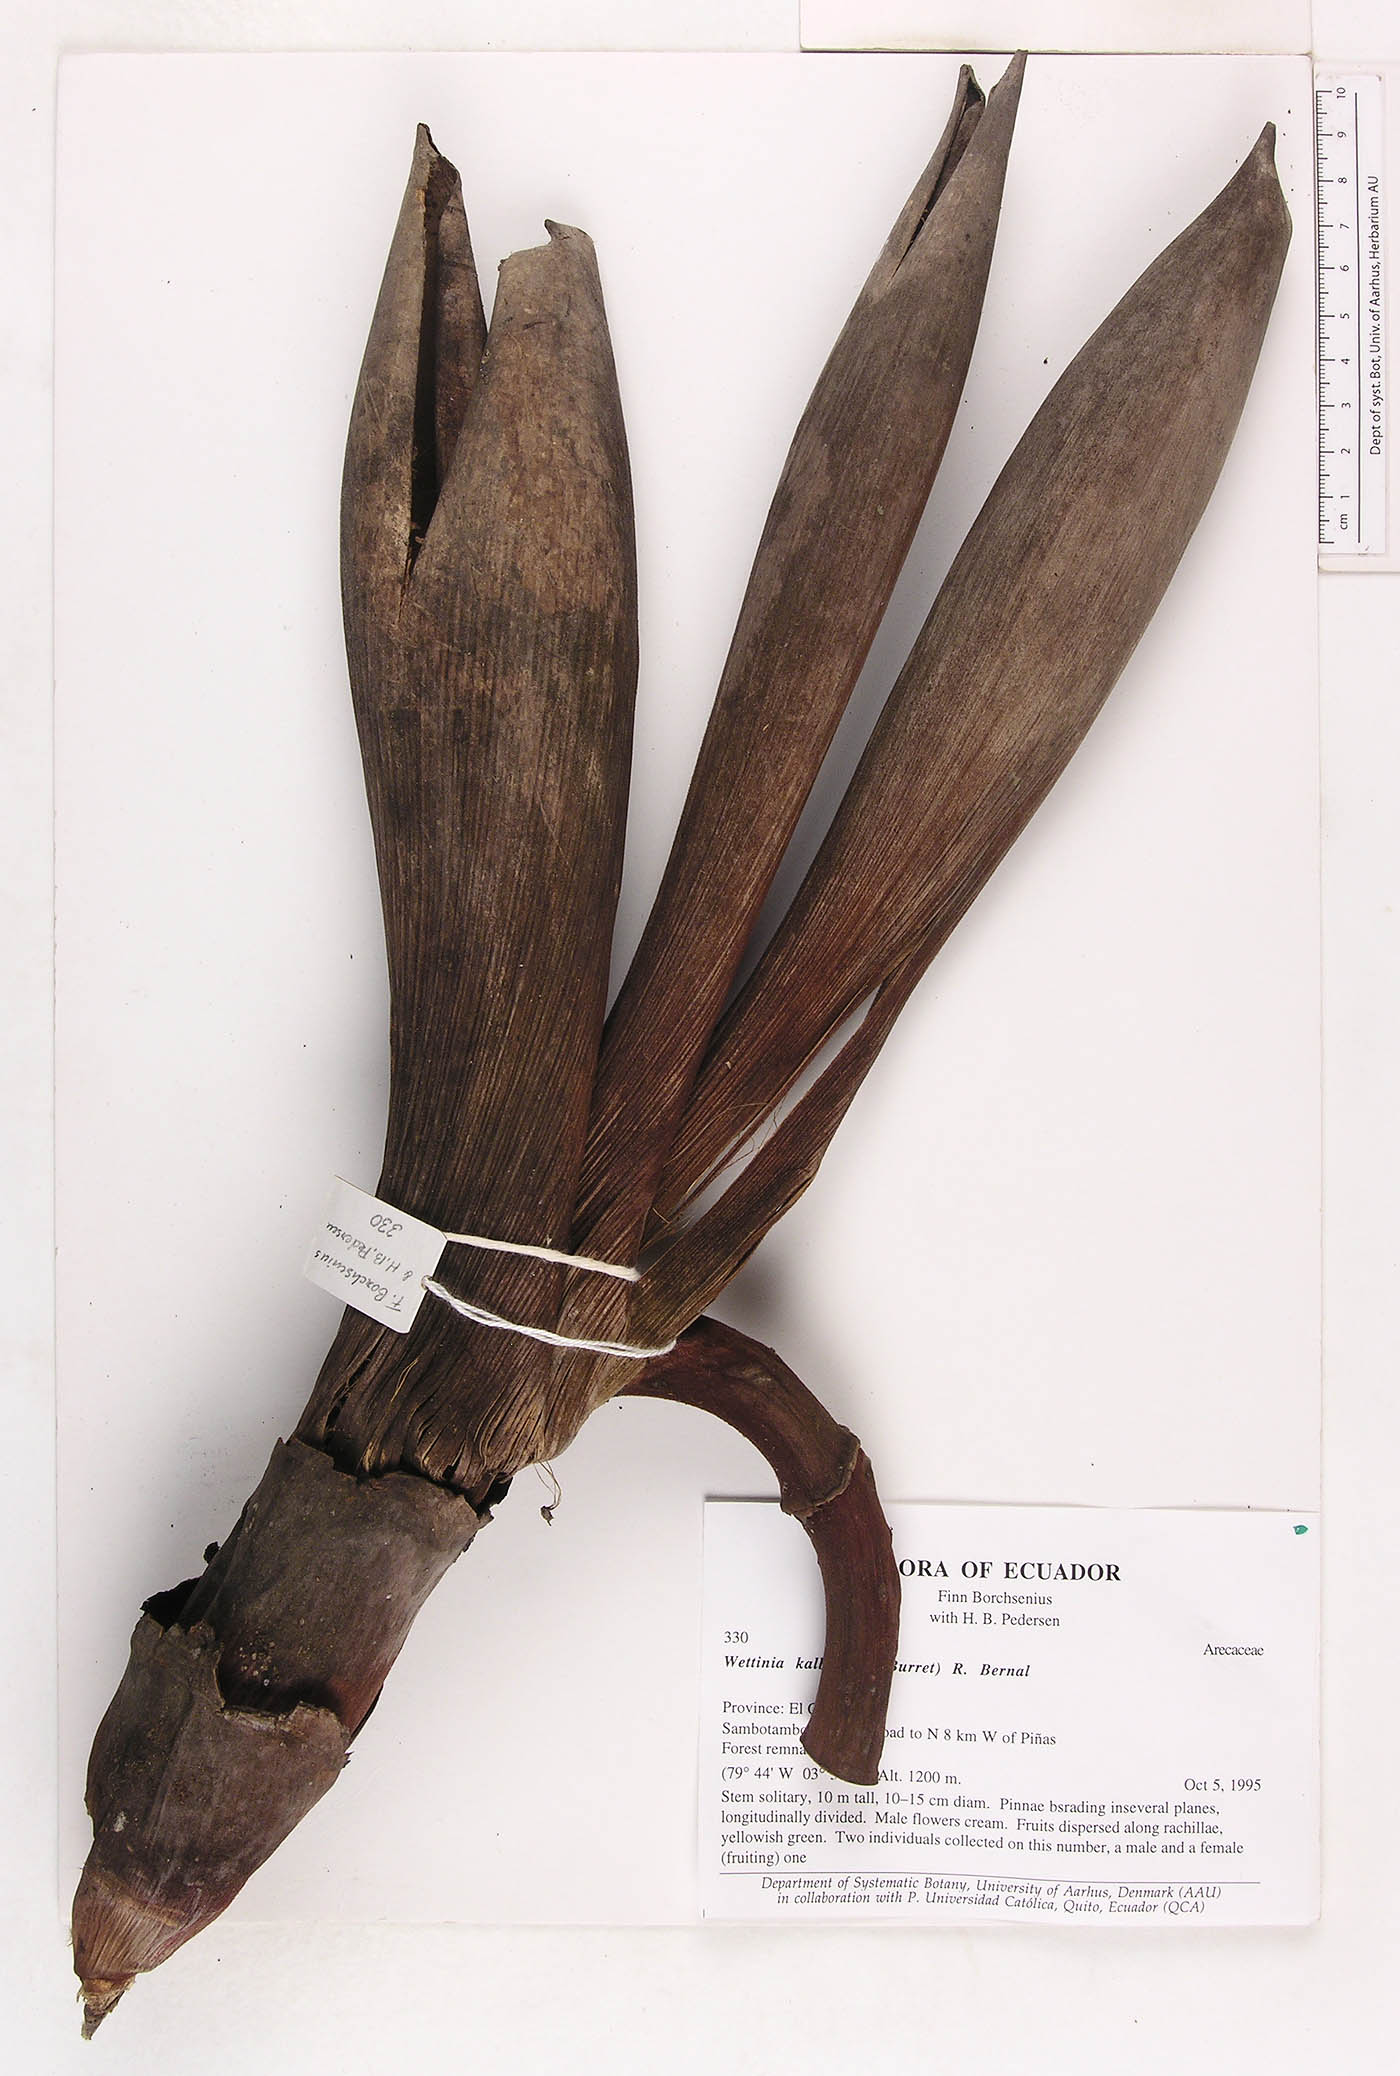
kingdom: Plantae
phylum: Tracheophyta
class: Liliopsida
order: Arecales
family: Arecaceae
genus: Wettinia
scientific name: Wettinia kalbreyeri
